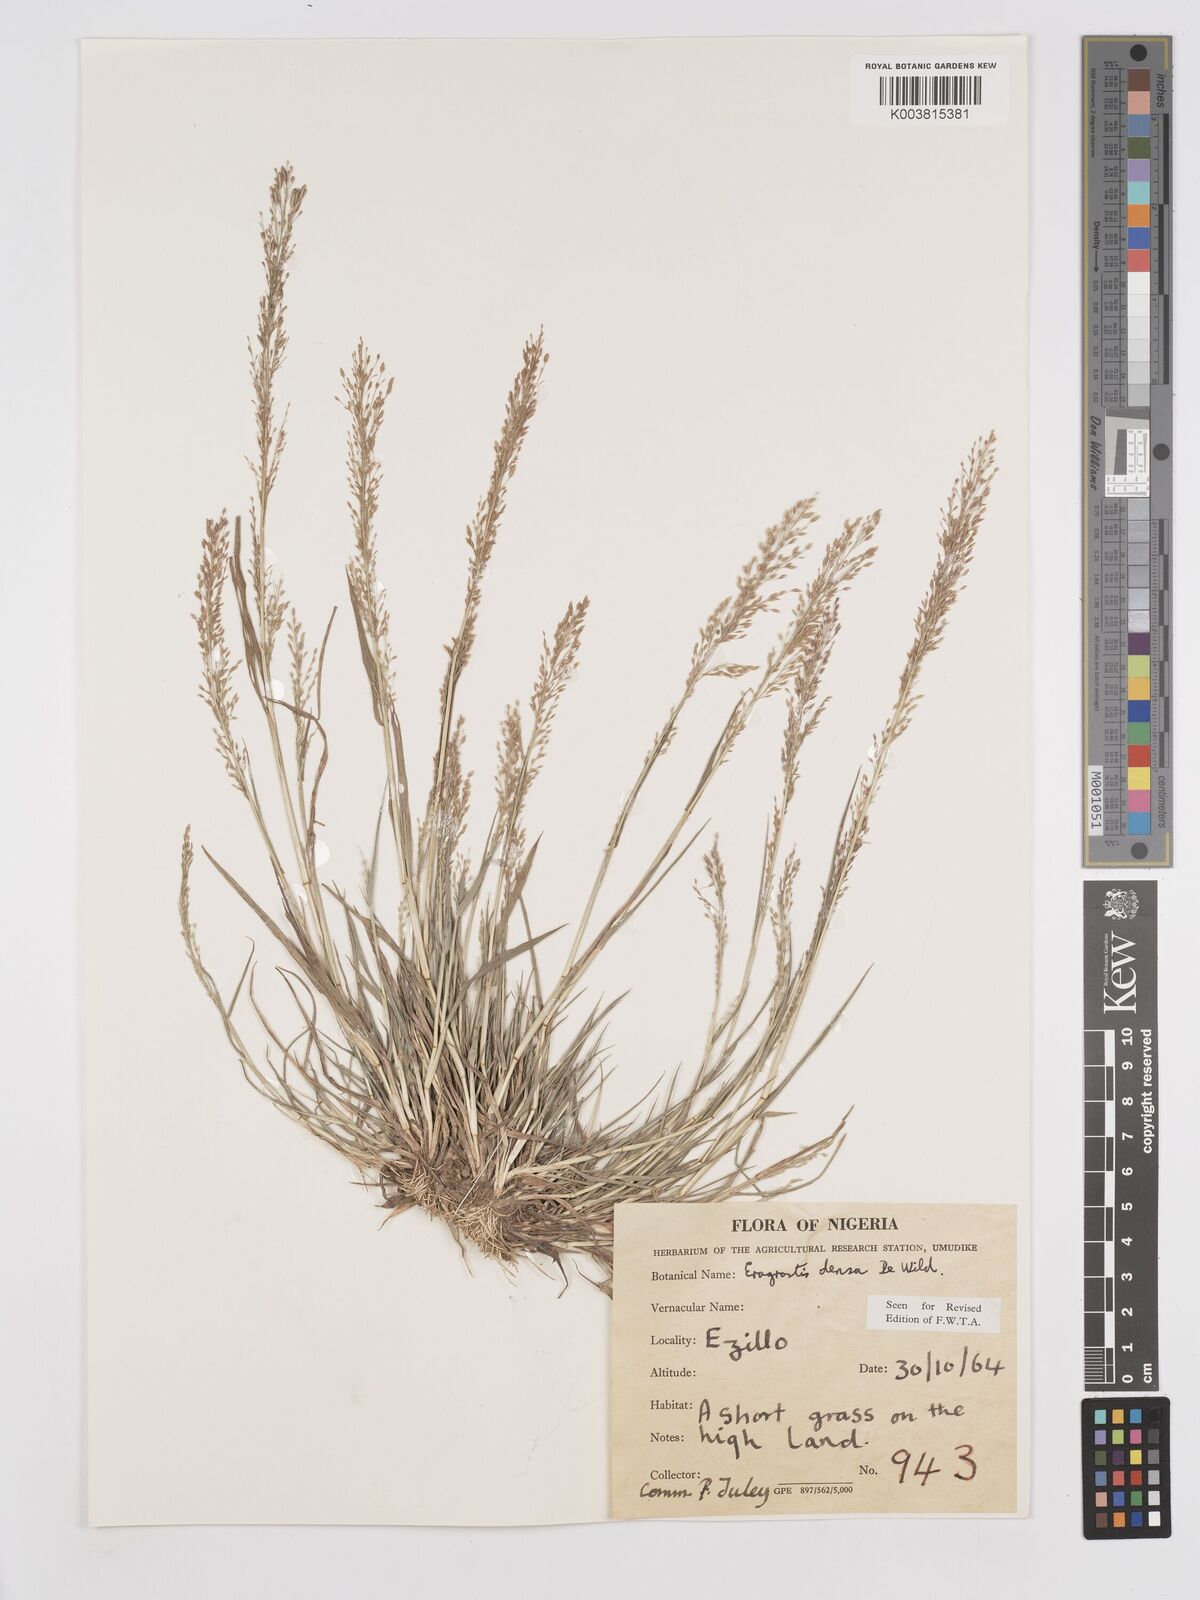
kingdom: Plantae
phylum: Tracheophyta
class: Liliopsida
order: Poales
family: Poaceae
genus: Eragrostis
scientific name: Eragrostis welwitschii
